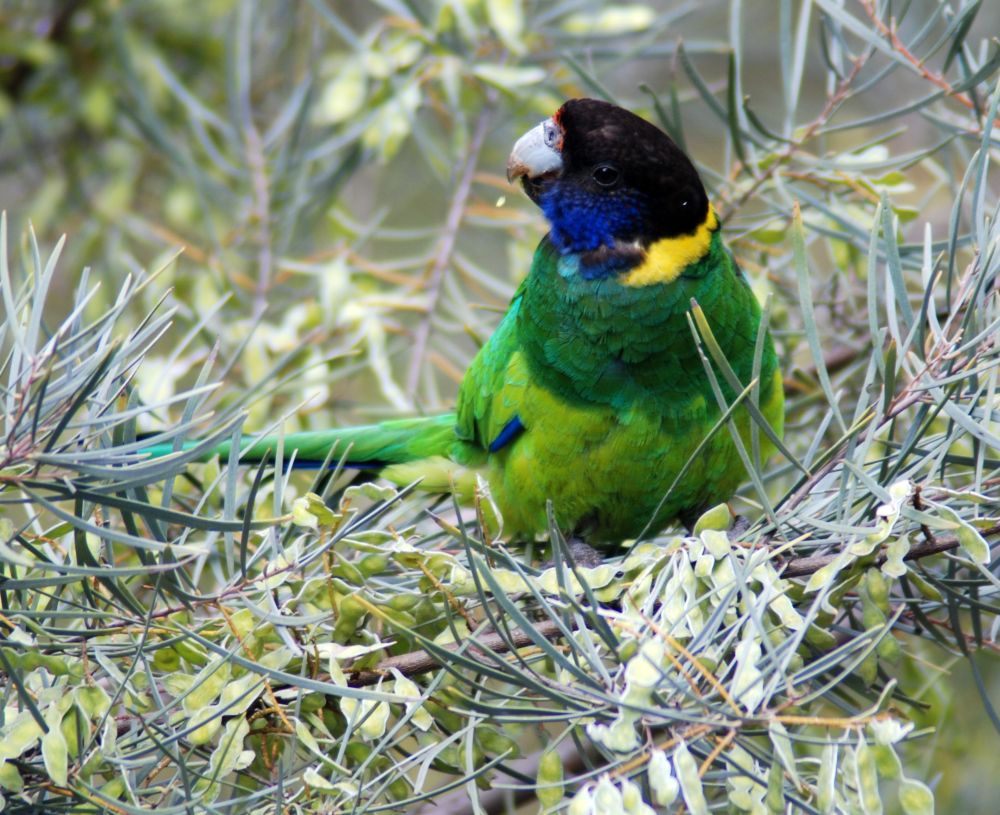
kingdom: Animalia
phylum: Chordata
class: Aves
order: Psittaciformes
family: Psittacidae
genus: Barnardius
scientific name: Barnardius zonarius
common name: Australian ringneck
